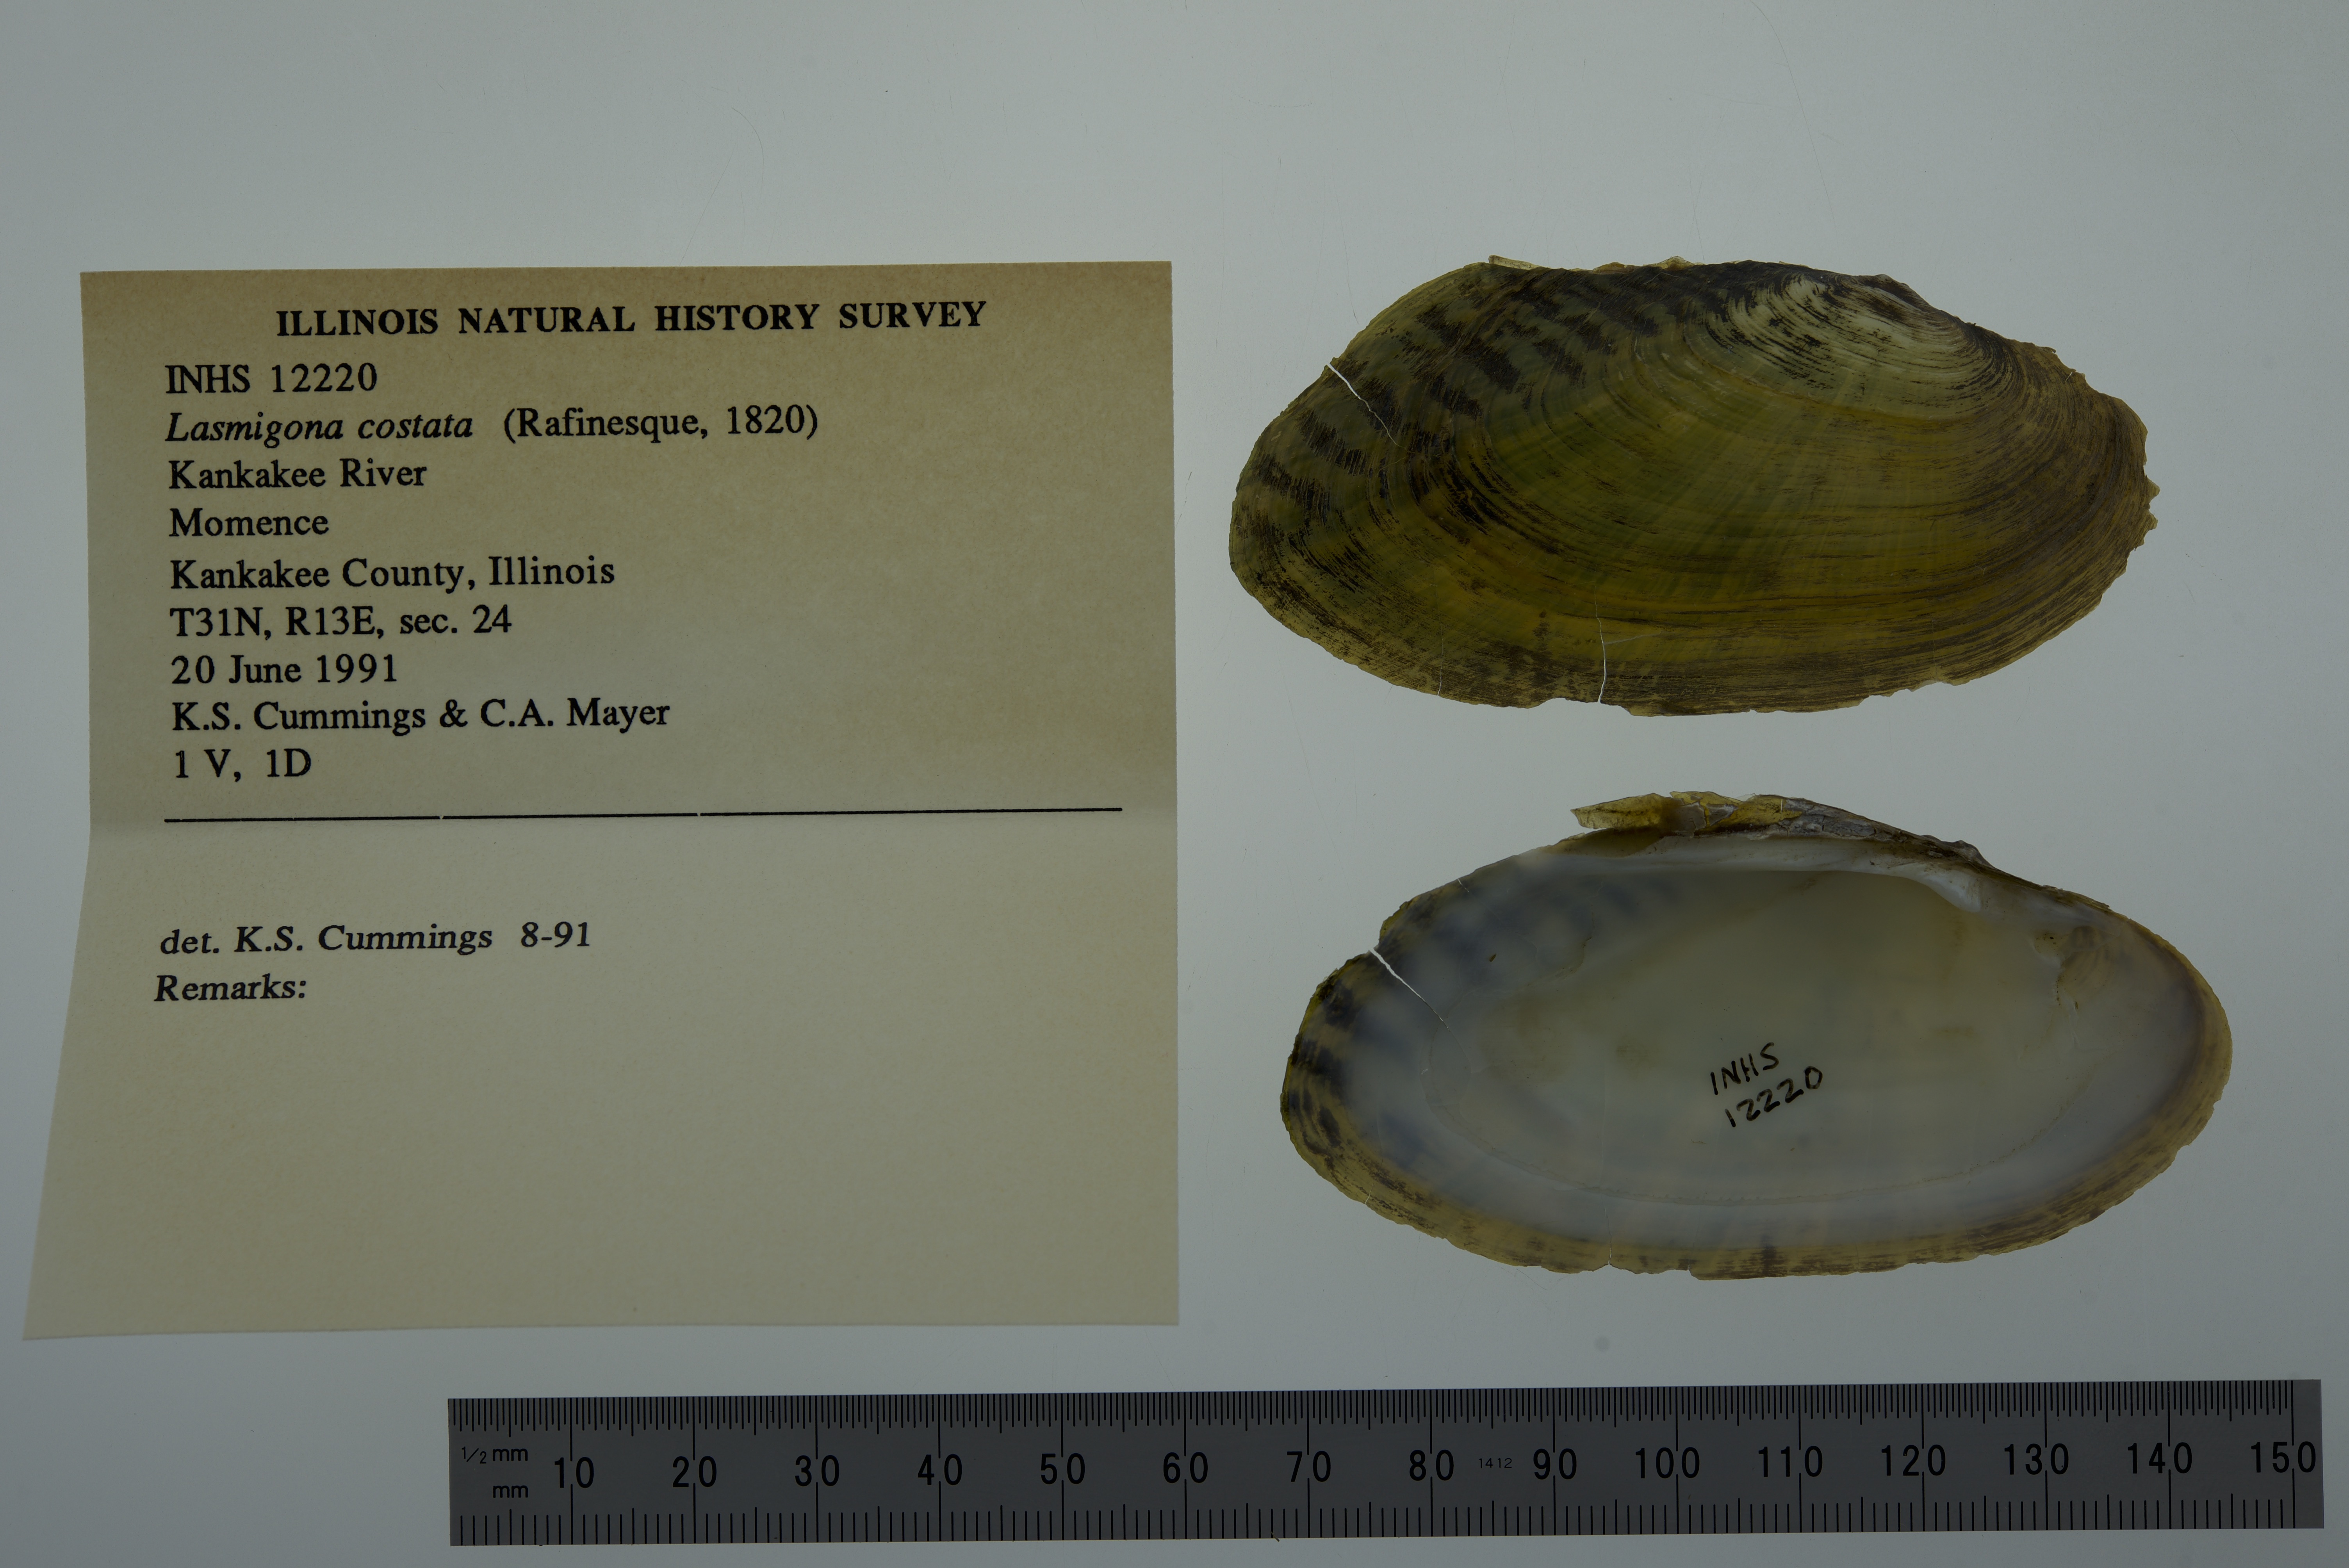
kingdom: Animalia
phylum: Mollusca
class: Bivalvia
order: Unionida
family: Unionidae
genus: Lasmigona
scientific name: Lasmigona costata
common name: Flutedshell
